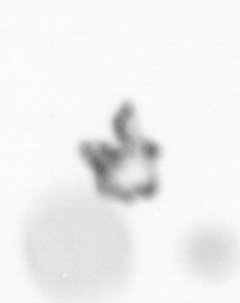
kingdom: Chromista
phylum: Ochrophyta
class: Bacillariophyceae
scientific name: Bacillariophyceae
